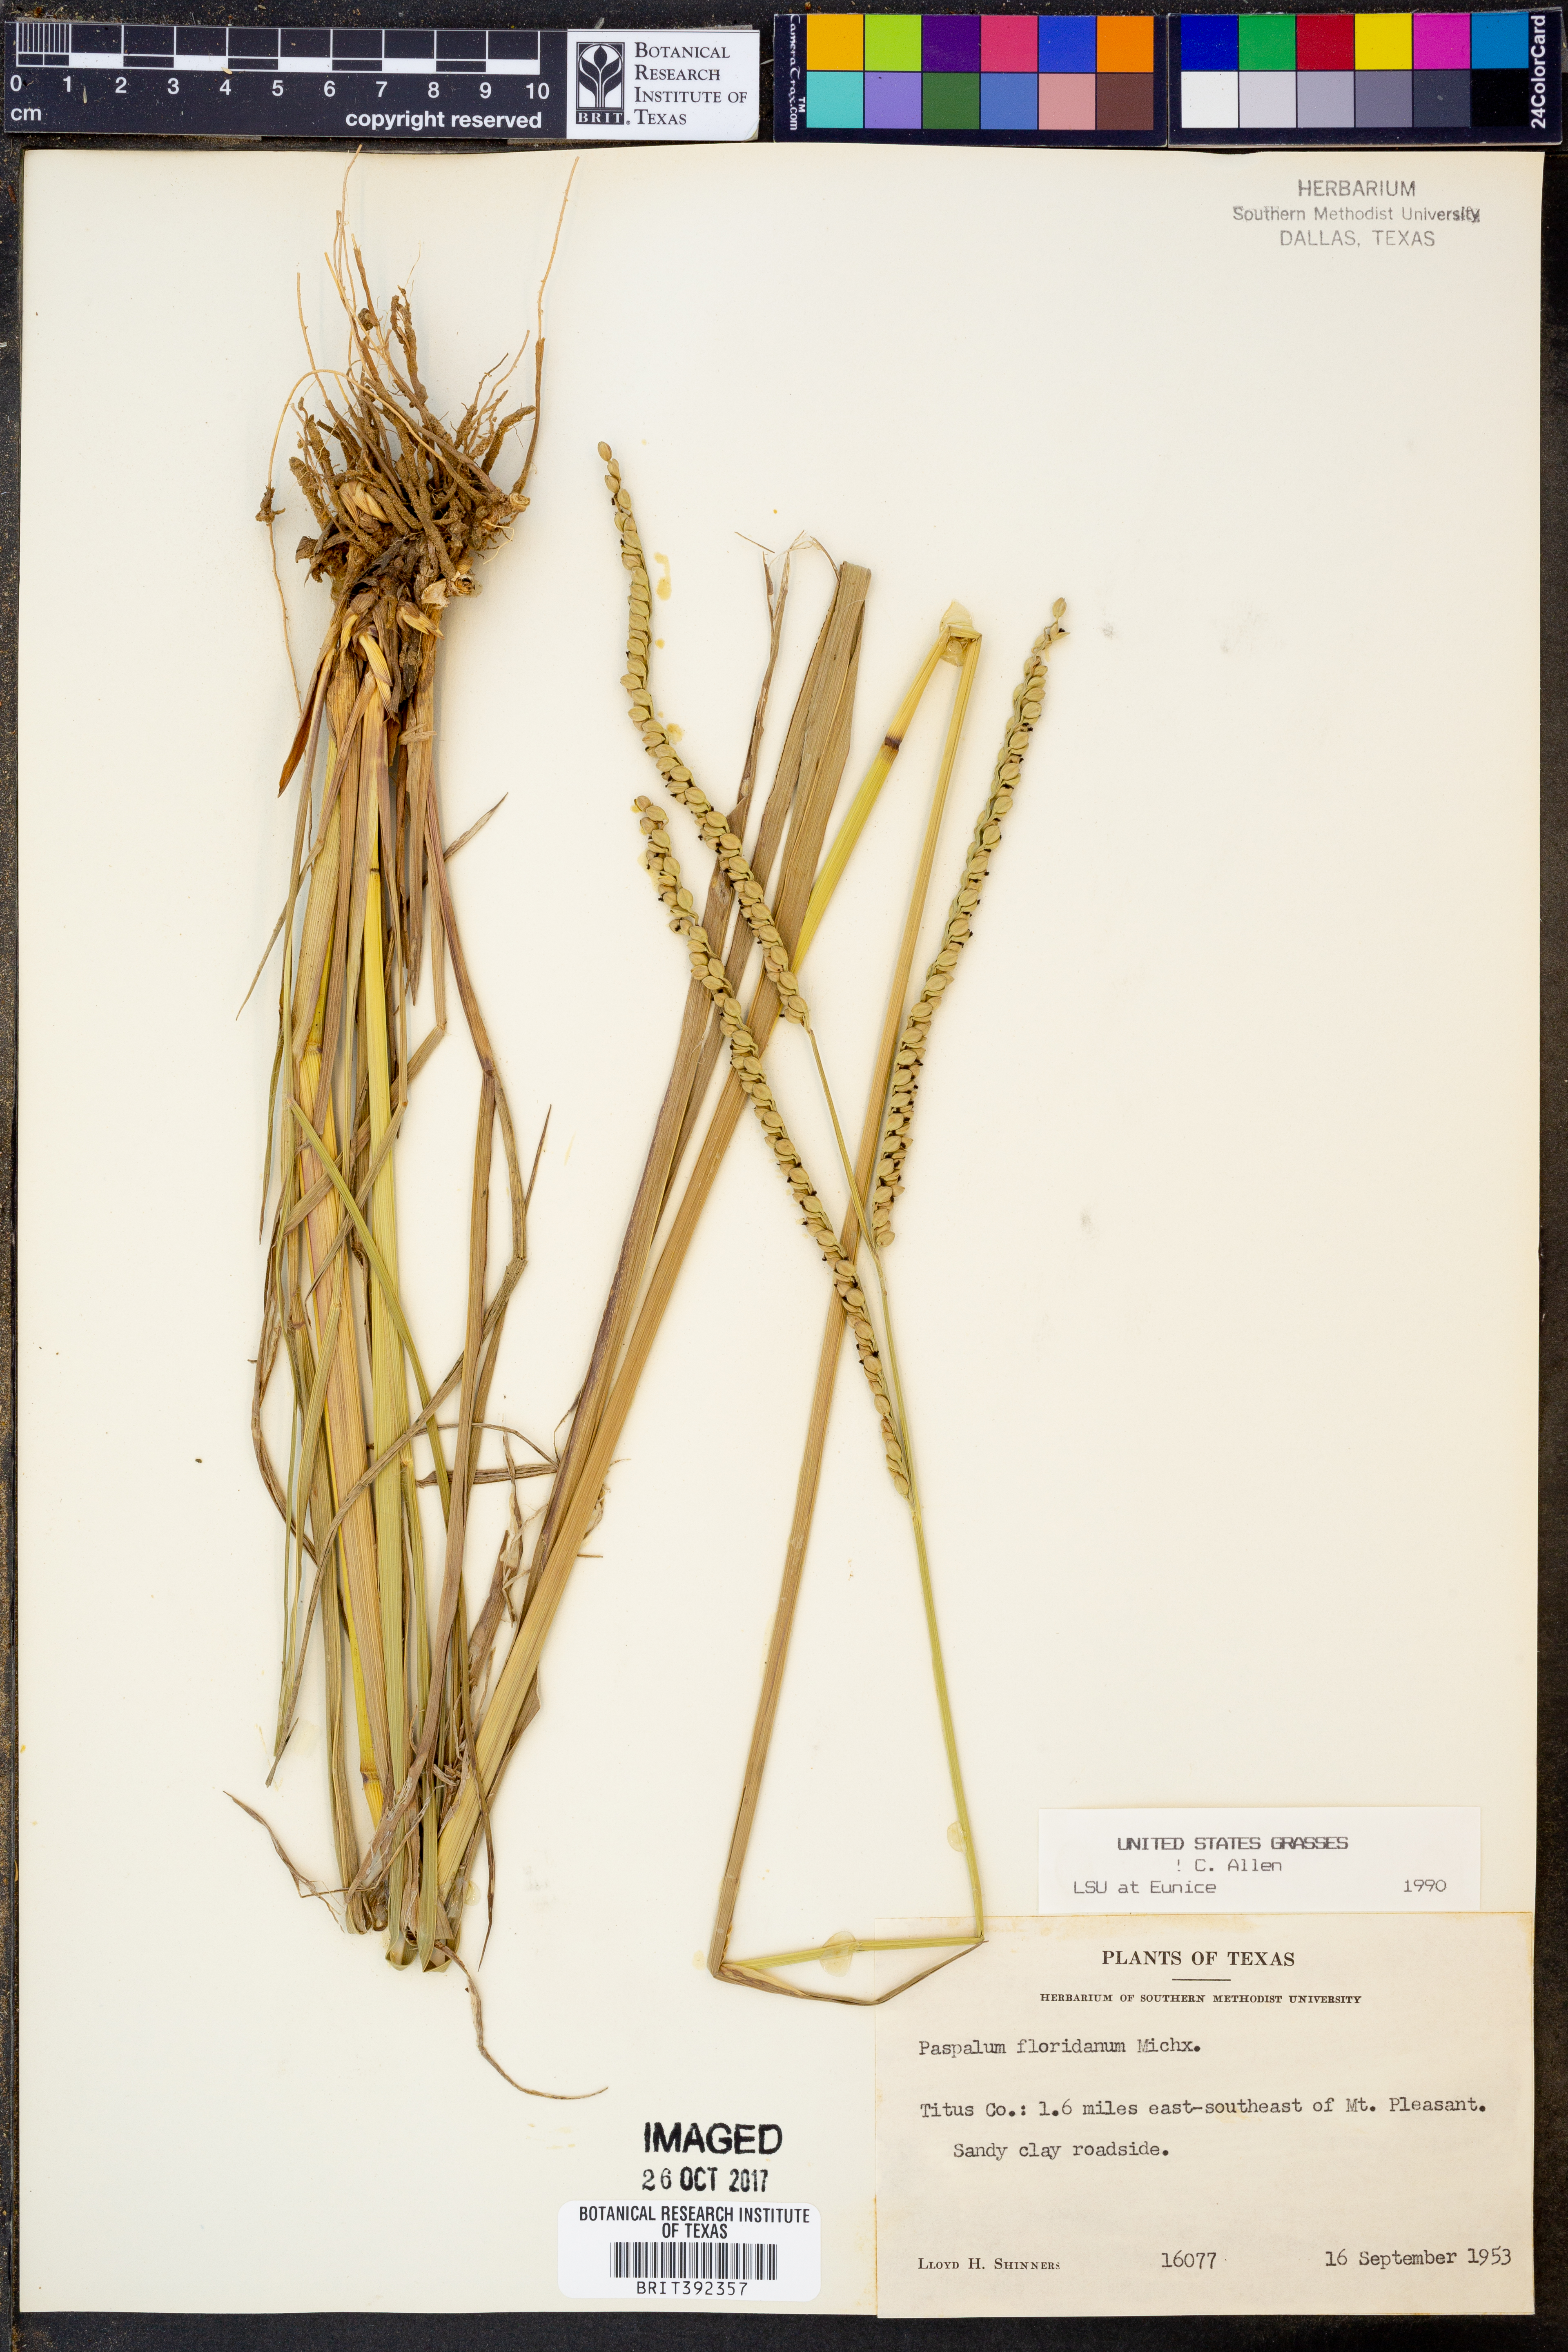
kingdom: Plantae
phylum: Tracheophyta
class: Liliopsida
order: Poales
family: Poaceae
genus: Paspalum
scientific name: Paspalum floridanum
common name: Florida paspalum
